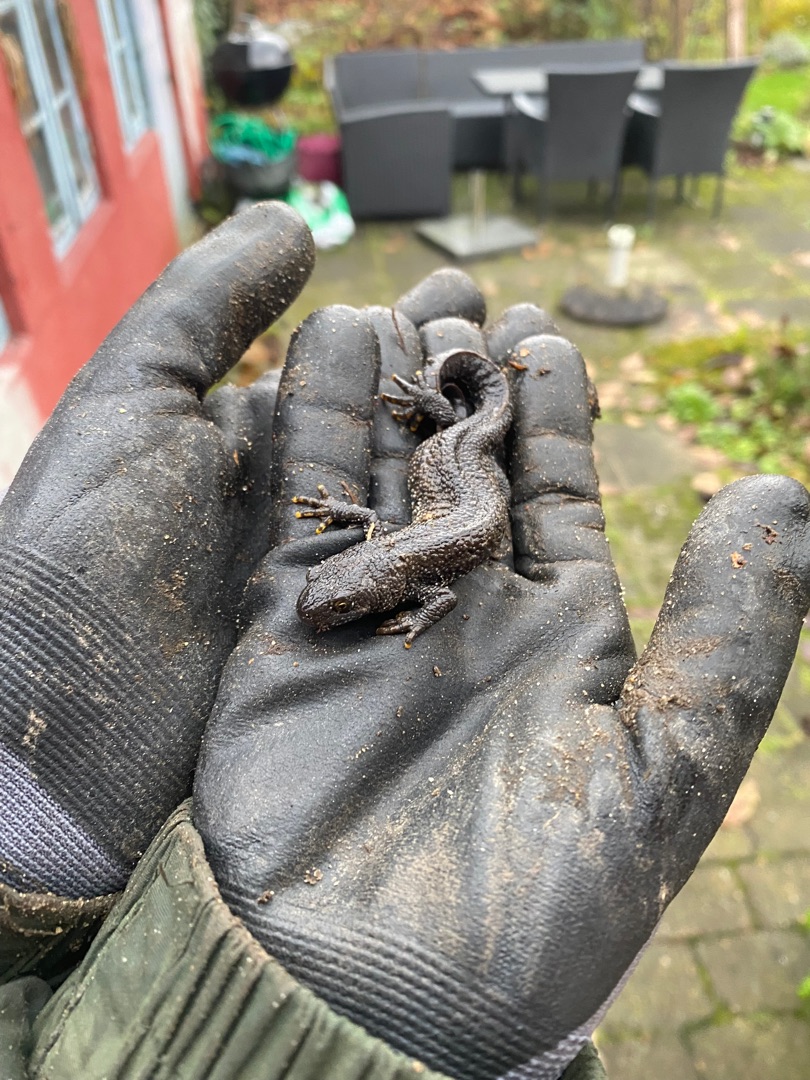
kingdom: Animalia
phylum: Chordata
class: Amphibia
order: Caudata
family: Salamandridae
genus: Triturus
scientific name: Triturus cristatus
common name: Stor vandsalamander
